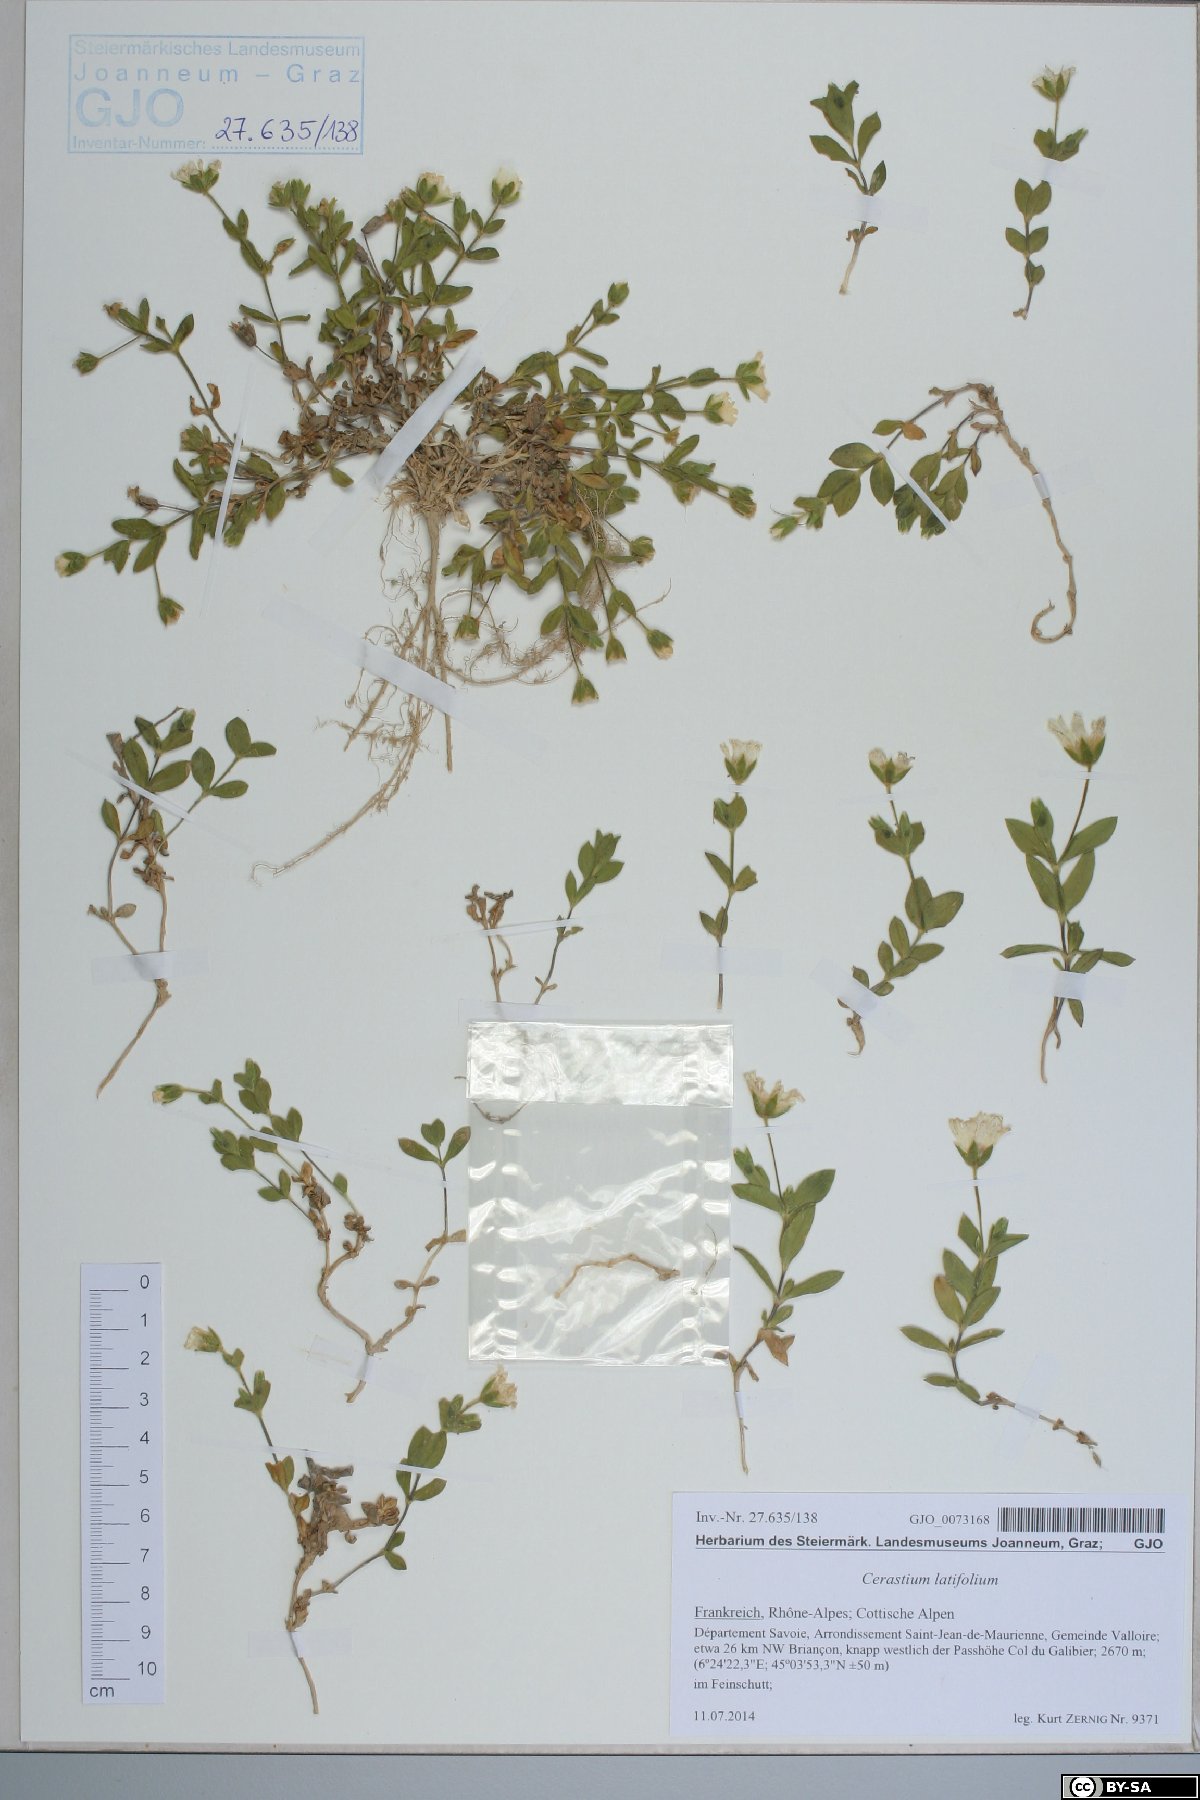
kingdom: Plantae
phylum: Tracheophyta
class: Magnoliopsida
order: Caryophyllales
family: Caryophyllaceae
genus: Cerastium
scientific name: Cerastium latifolium
